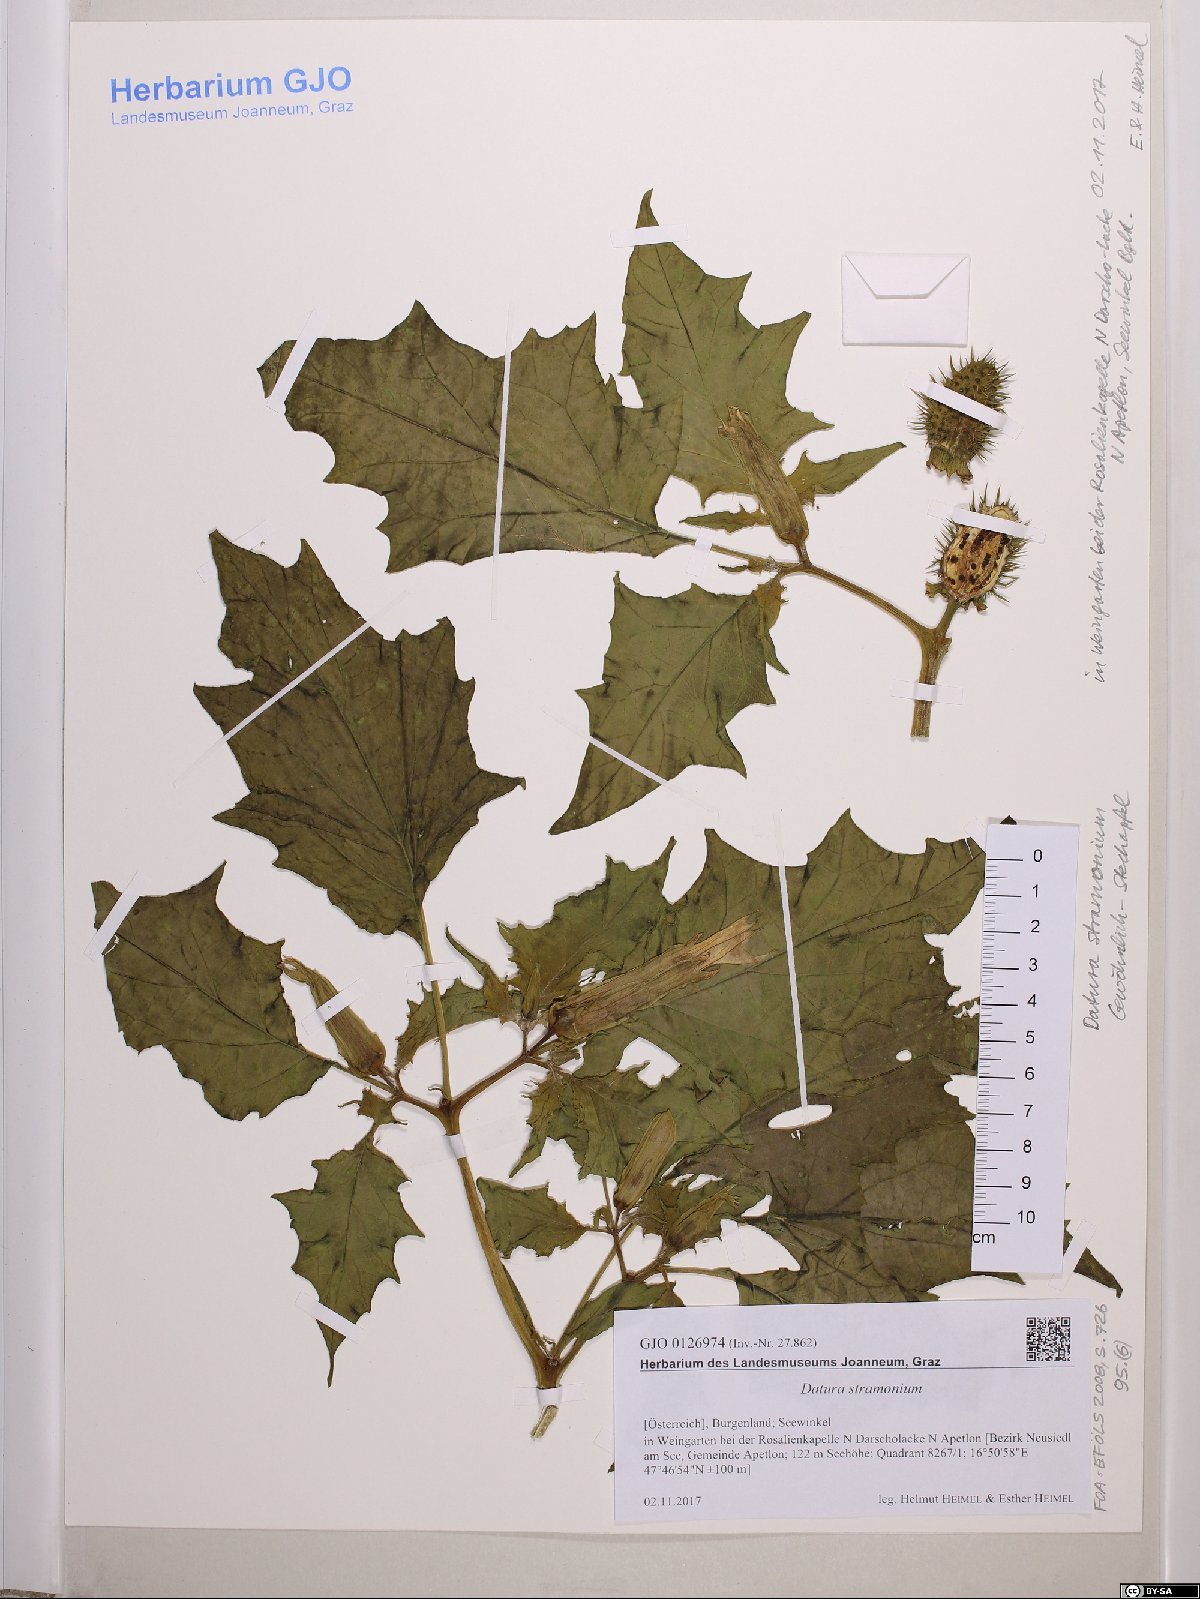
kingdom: Plantae
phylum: Tracheophyta
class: Magnoliopsida
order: Solanales
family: Solanaceae
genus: Datura
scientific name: Datura stramonium
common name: Thorn-apple
